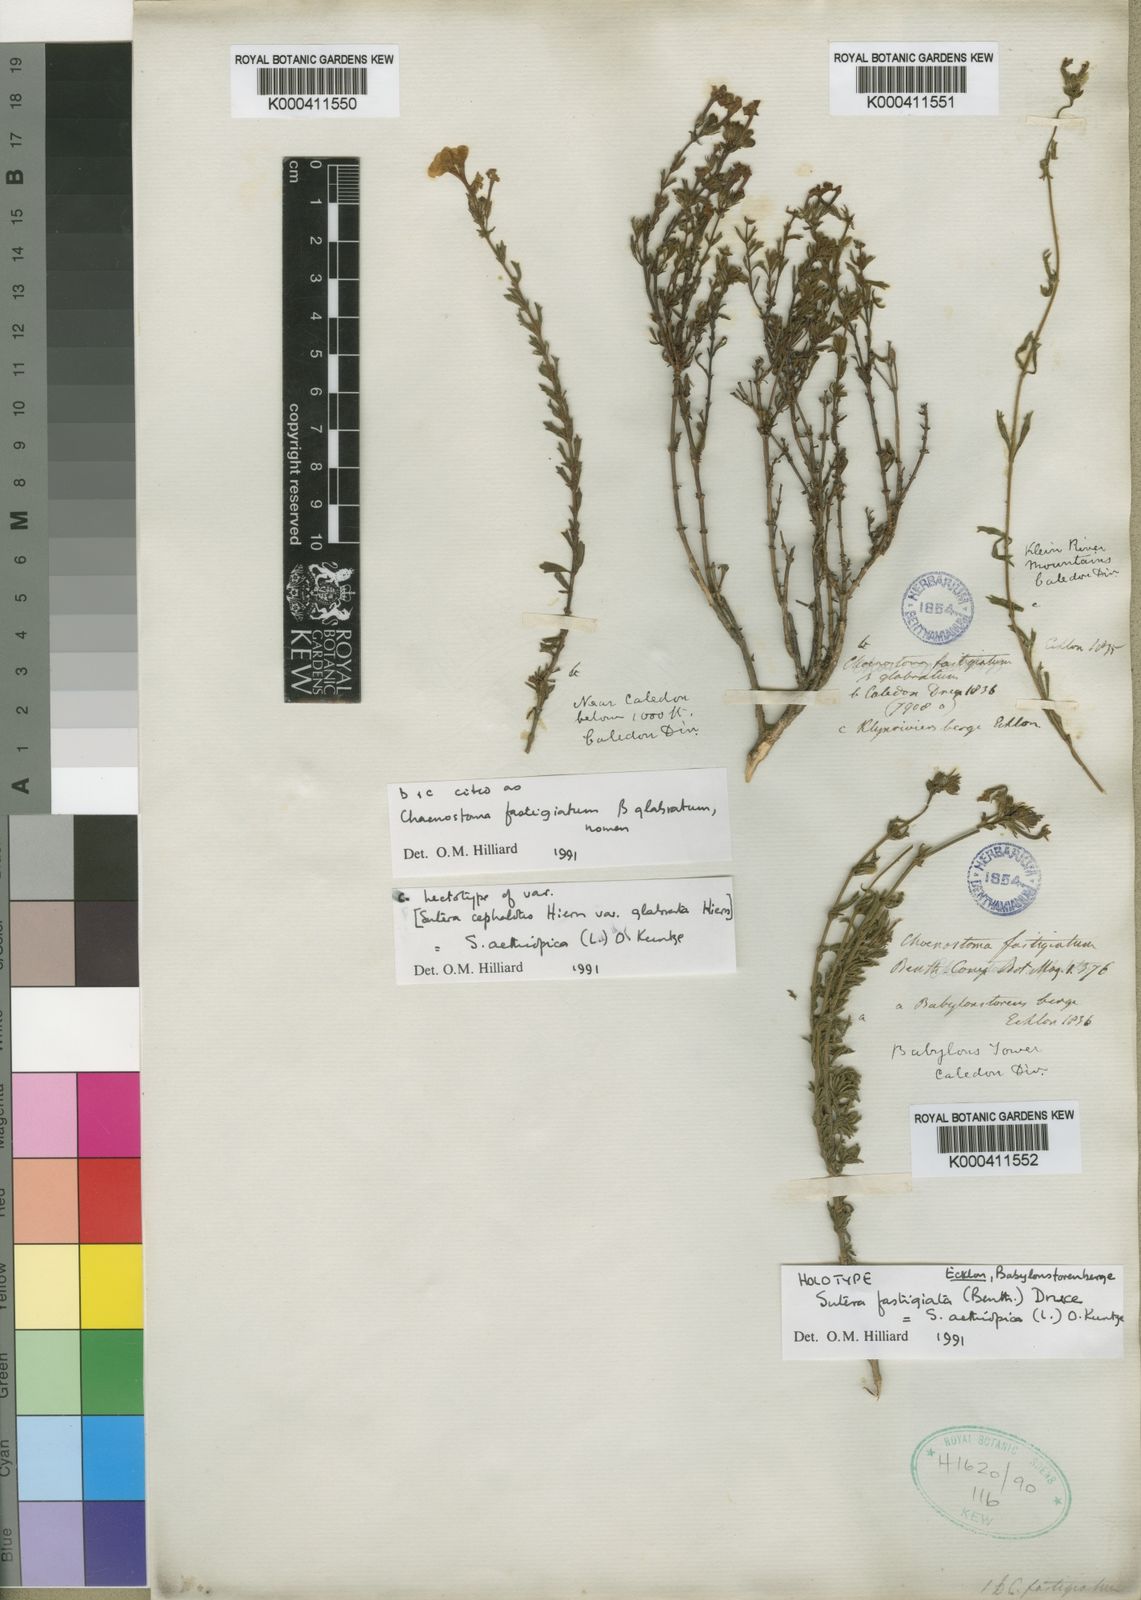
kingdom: Plantae
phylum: Tracheophyta
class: Magnoliopsida
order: Lamiales
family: Scrophulariaceae
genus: Chaenostoma
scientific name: Chaenostoma aethiopicum
